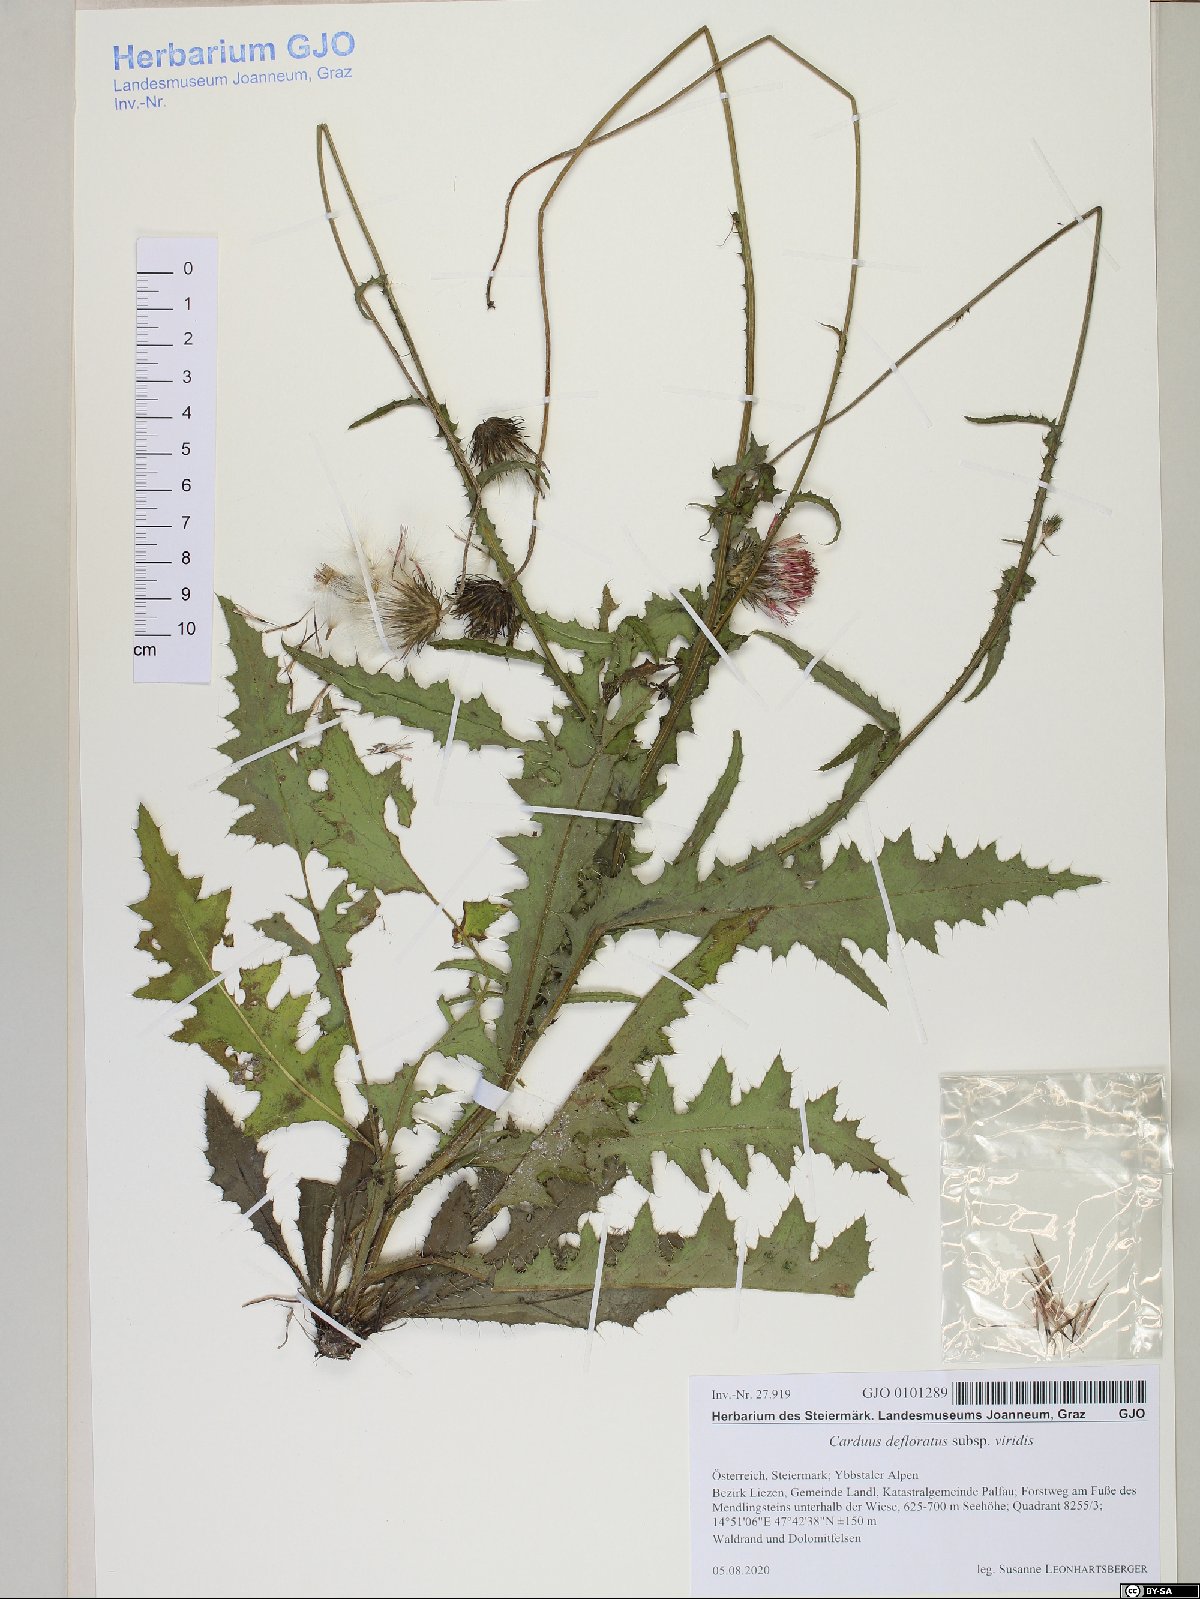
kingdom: Plantae
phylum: Tracheophyta
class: Magnoliopsida
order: Asterales
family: Asteraceae
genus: Carduus
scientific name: Carduus defloratus
